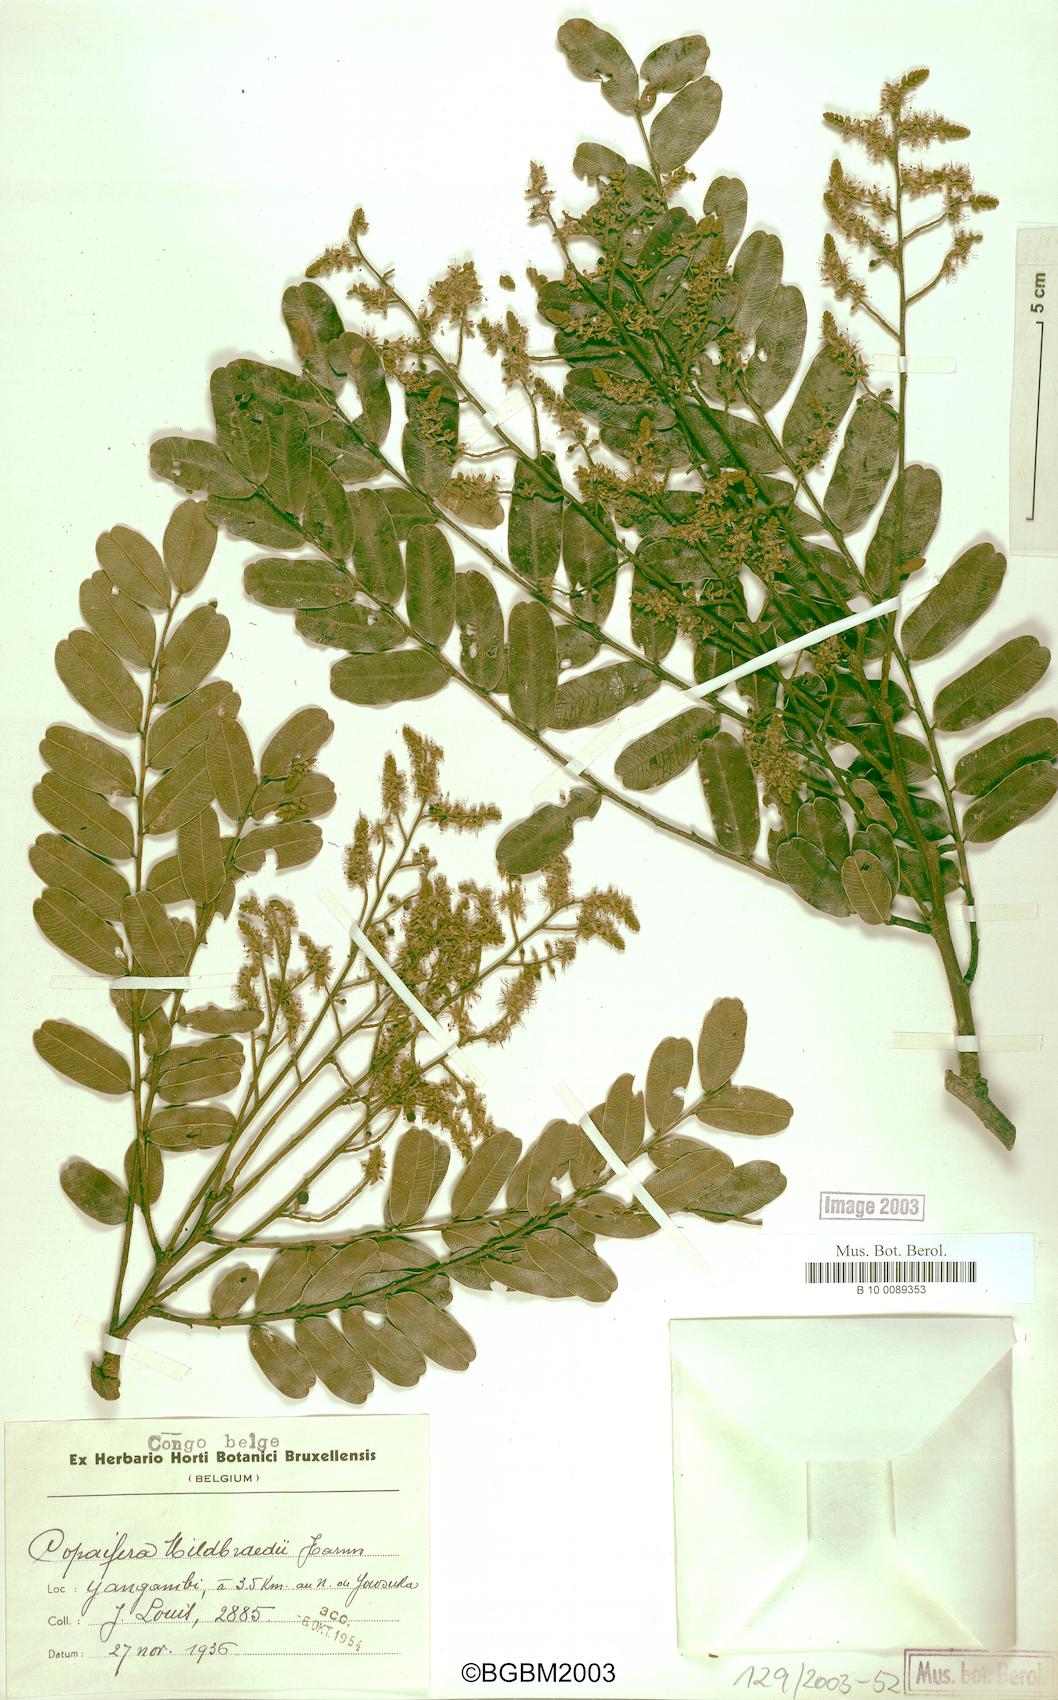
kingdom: Plantae
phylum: Tracheophyta
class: Magnoliopsida
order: Fabales
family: Fabaceae
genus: Copaifera
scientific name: Copaifera mildbraedii
